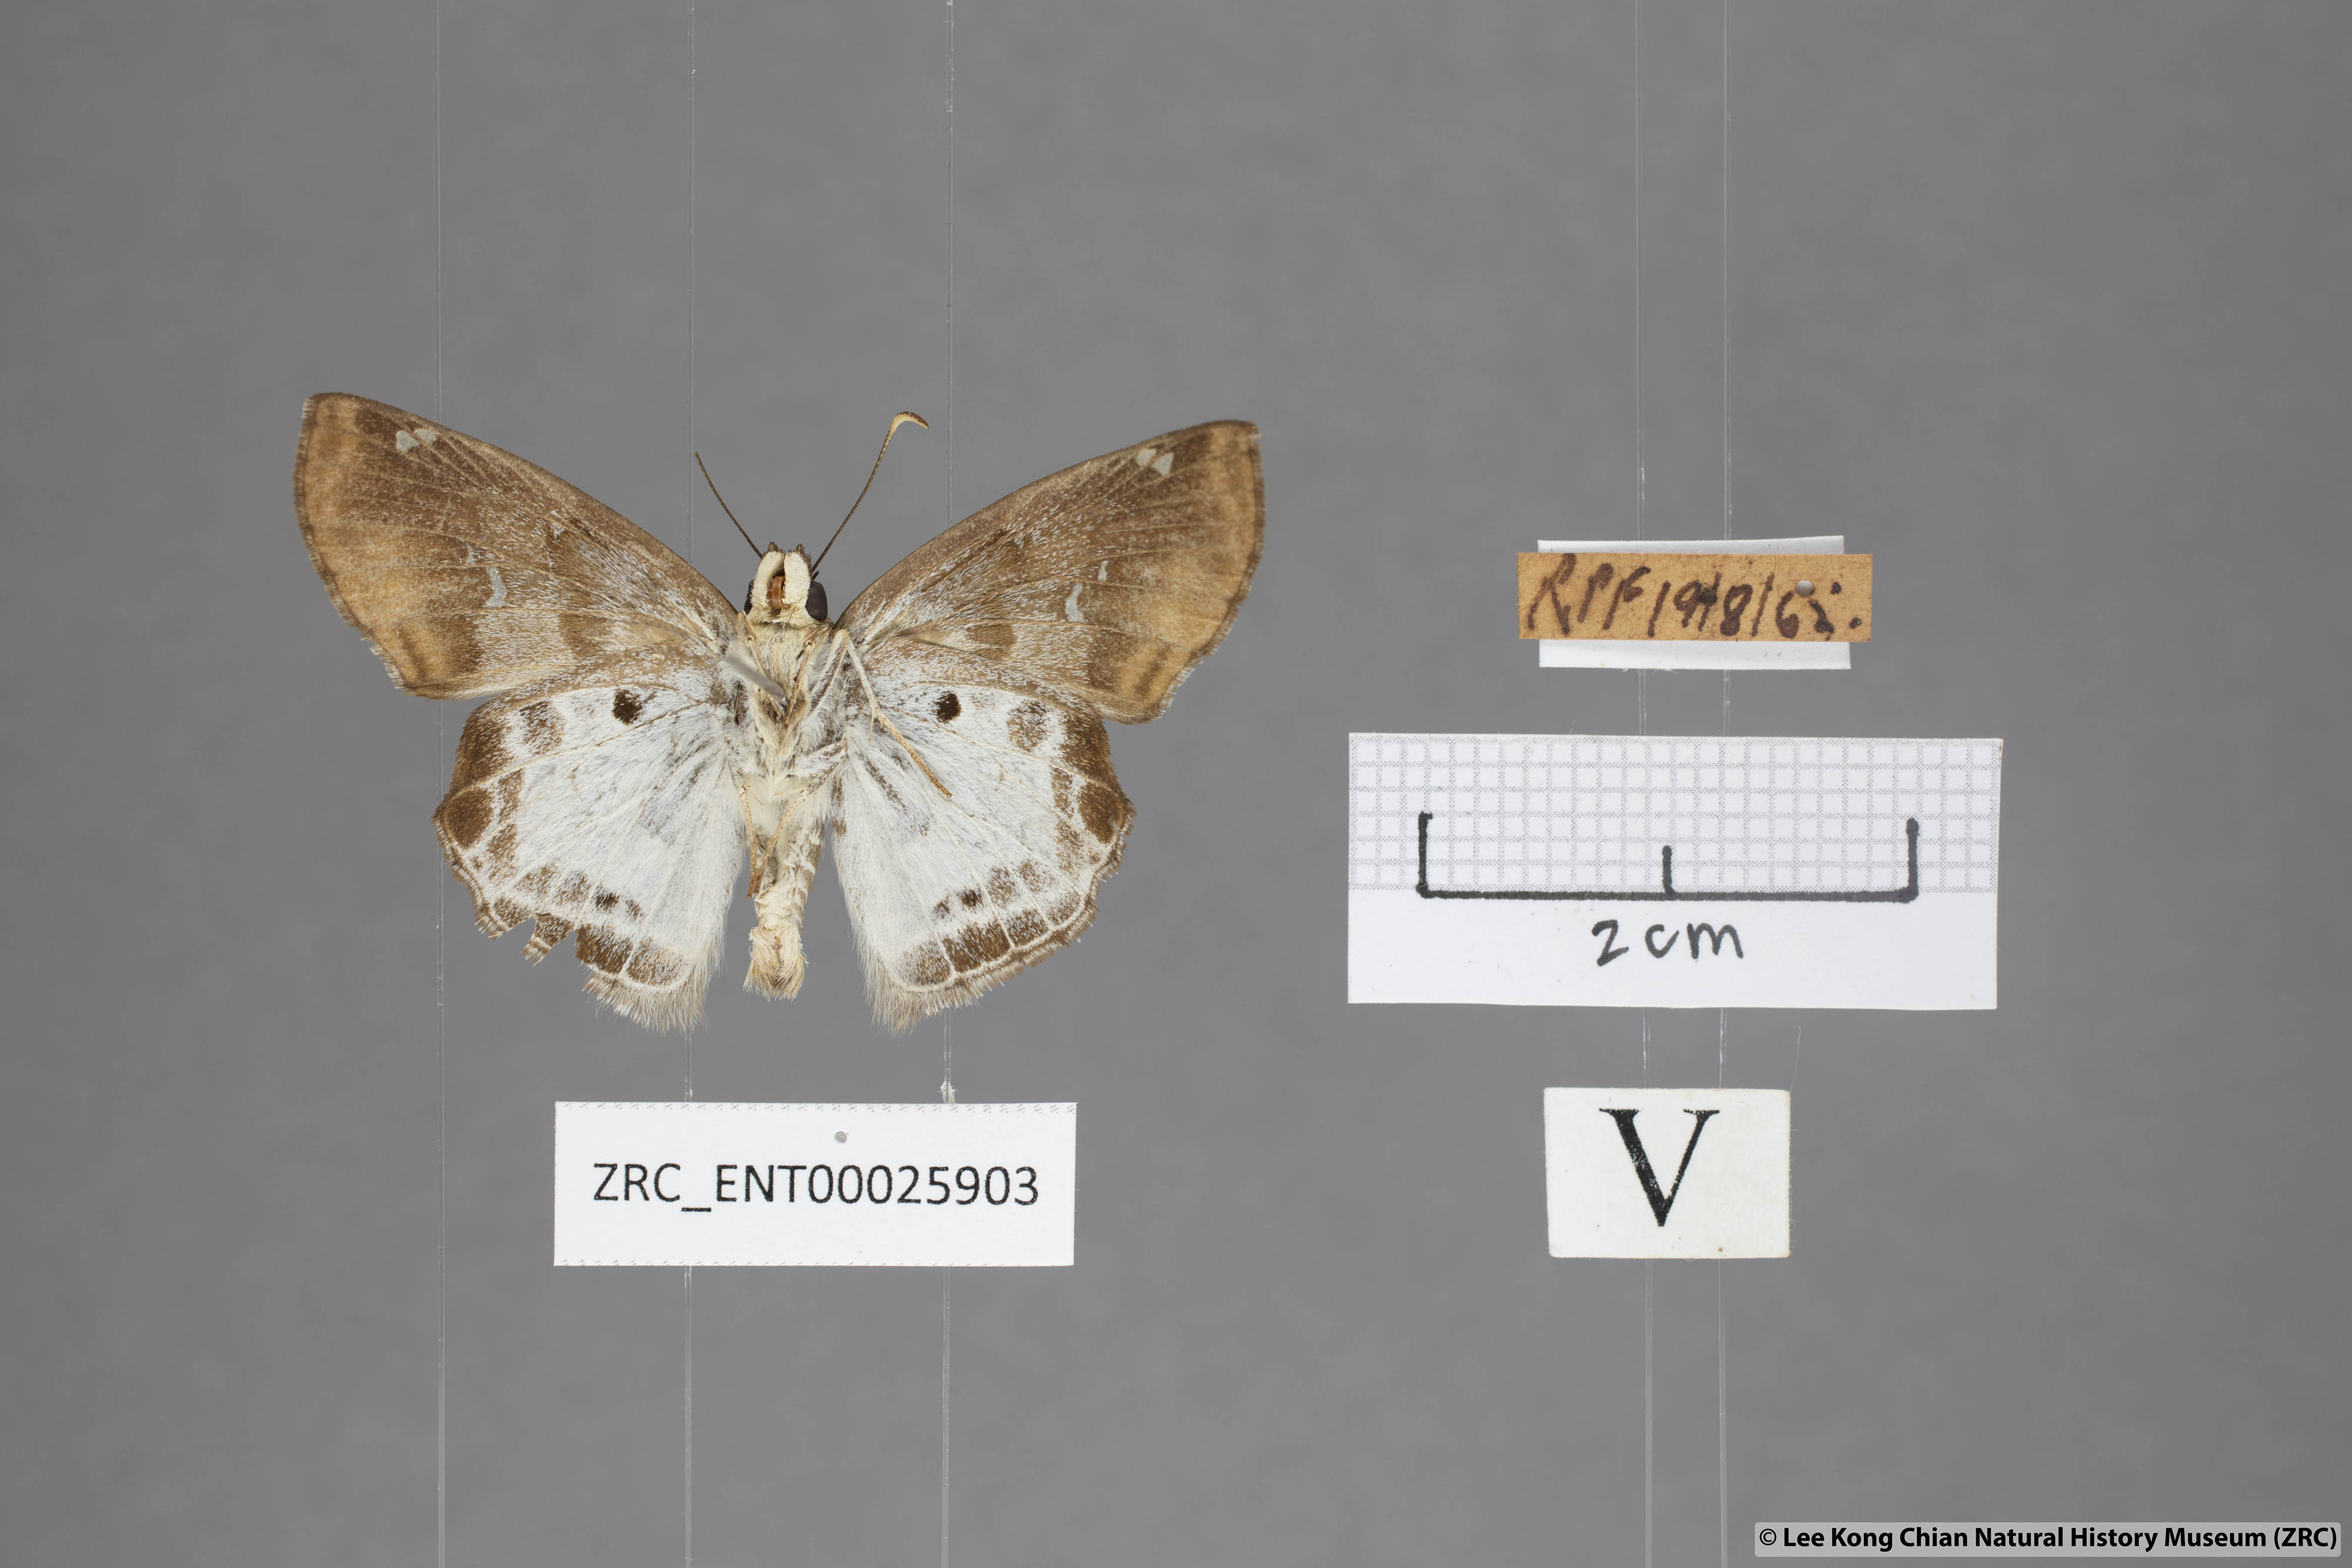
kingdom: Animalia
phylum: Arthropoda
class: Insecta
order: Lepidoptera
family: Hesperiidae
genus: Odontoptilum
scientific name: Odontoptilum angulata
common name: Chestnut banded angle
